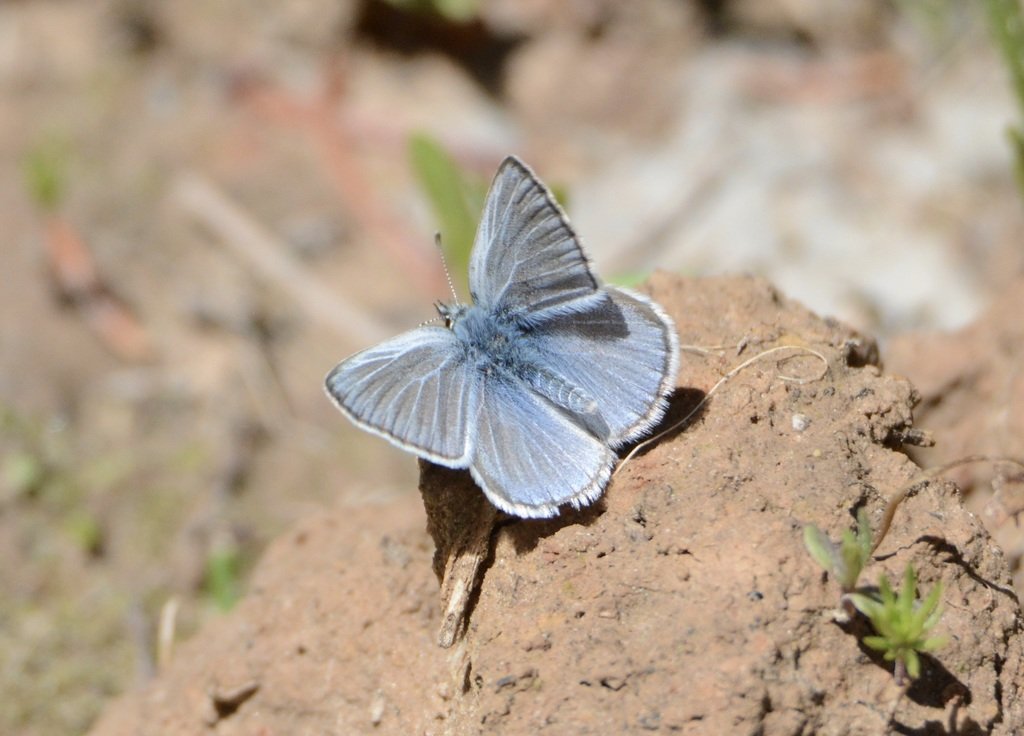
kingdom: Animalia
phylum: Arthropoda
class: Insecta
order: Lepidoptera
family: Lycaenidae
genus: Icaricia
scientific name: Icaricia icarioides
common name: Boisduval's Blue
